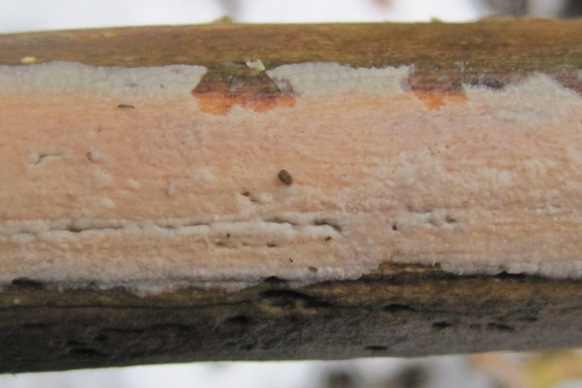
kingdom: Fungi
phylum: Basidiomycota
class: Agaricomycetes
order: Agaricales
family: Radulomycetaceae
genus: Radulomyces
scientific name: Radulomyces confluens
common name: glat naftalinskind
